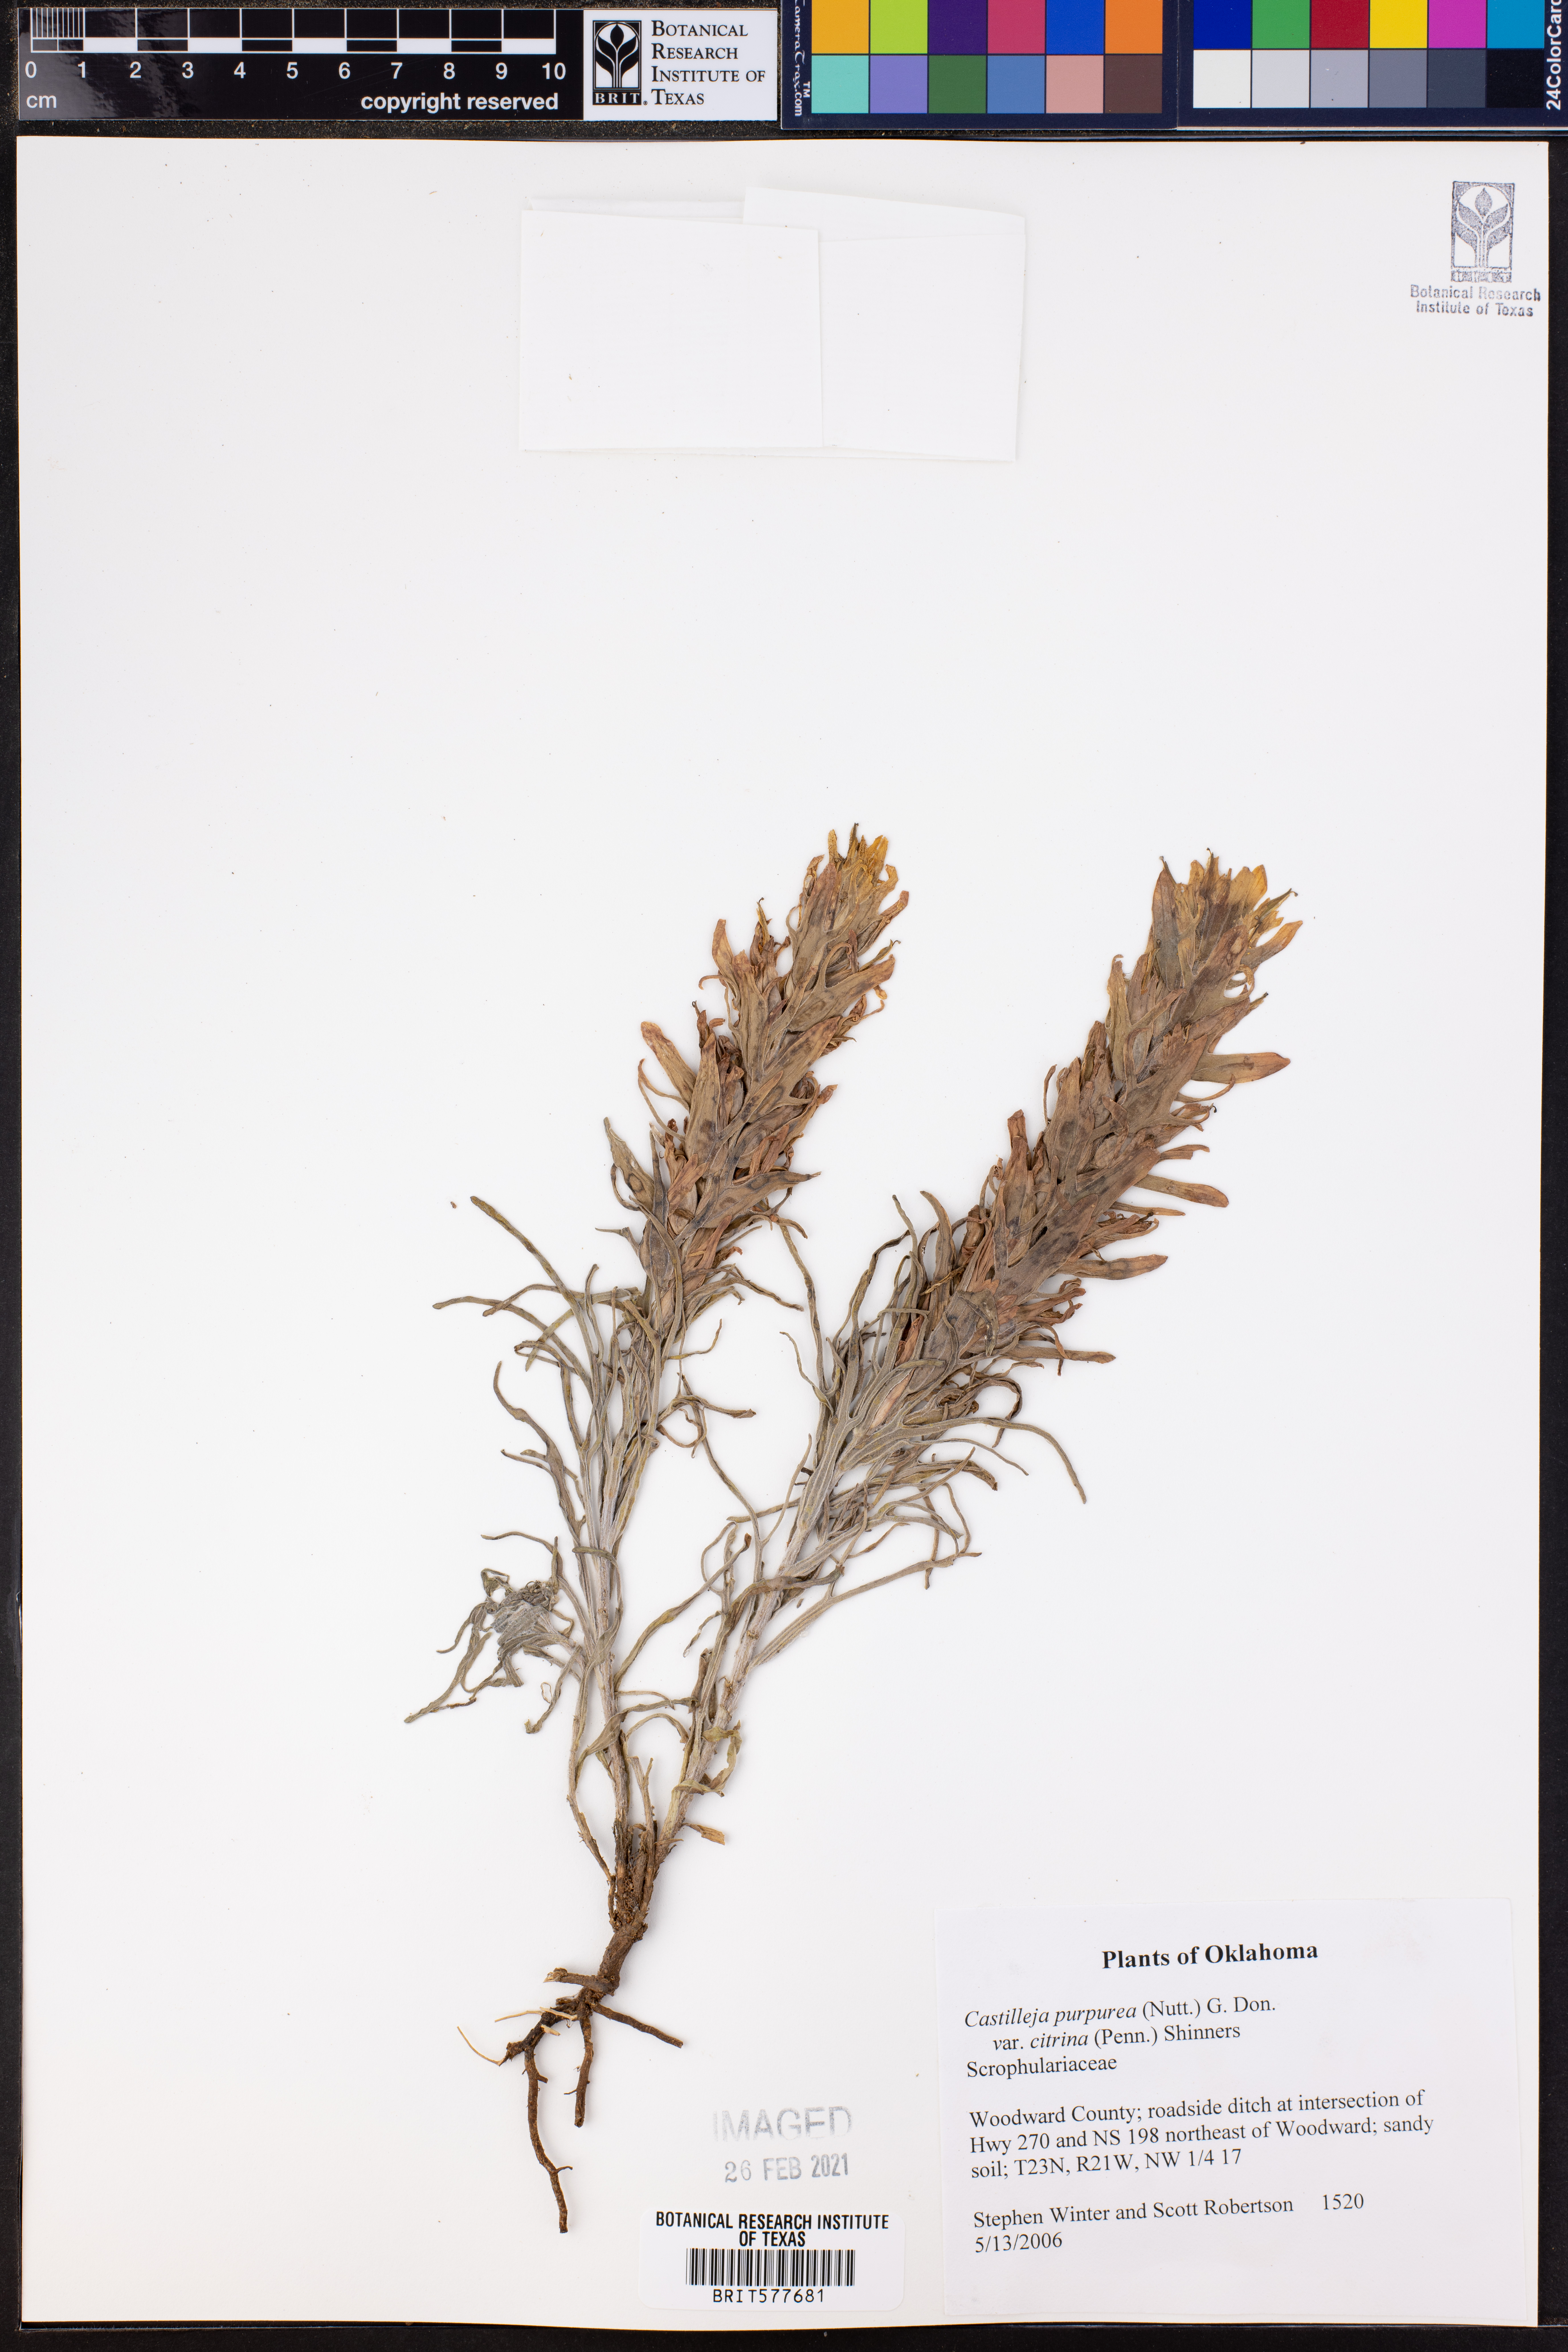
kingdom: Plantae
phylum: Tracheophyta
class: Magnoliopsida
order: Lamiales
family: Orobanchaceae
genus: Castilleja
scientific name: Castilleja citrina
